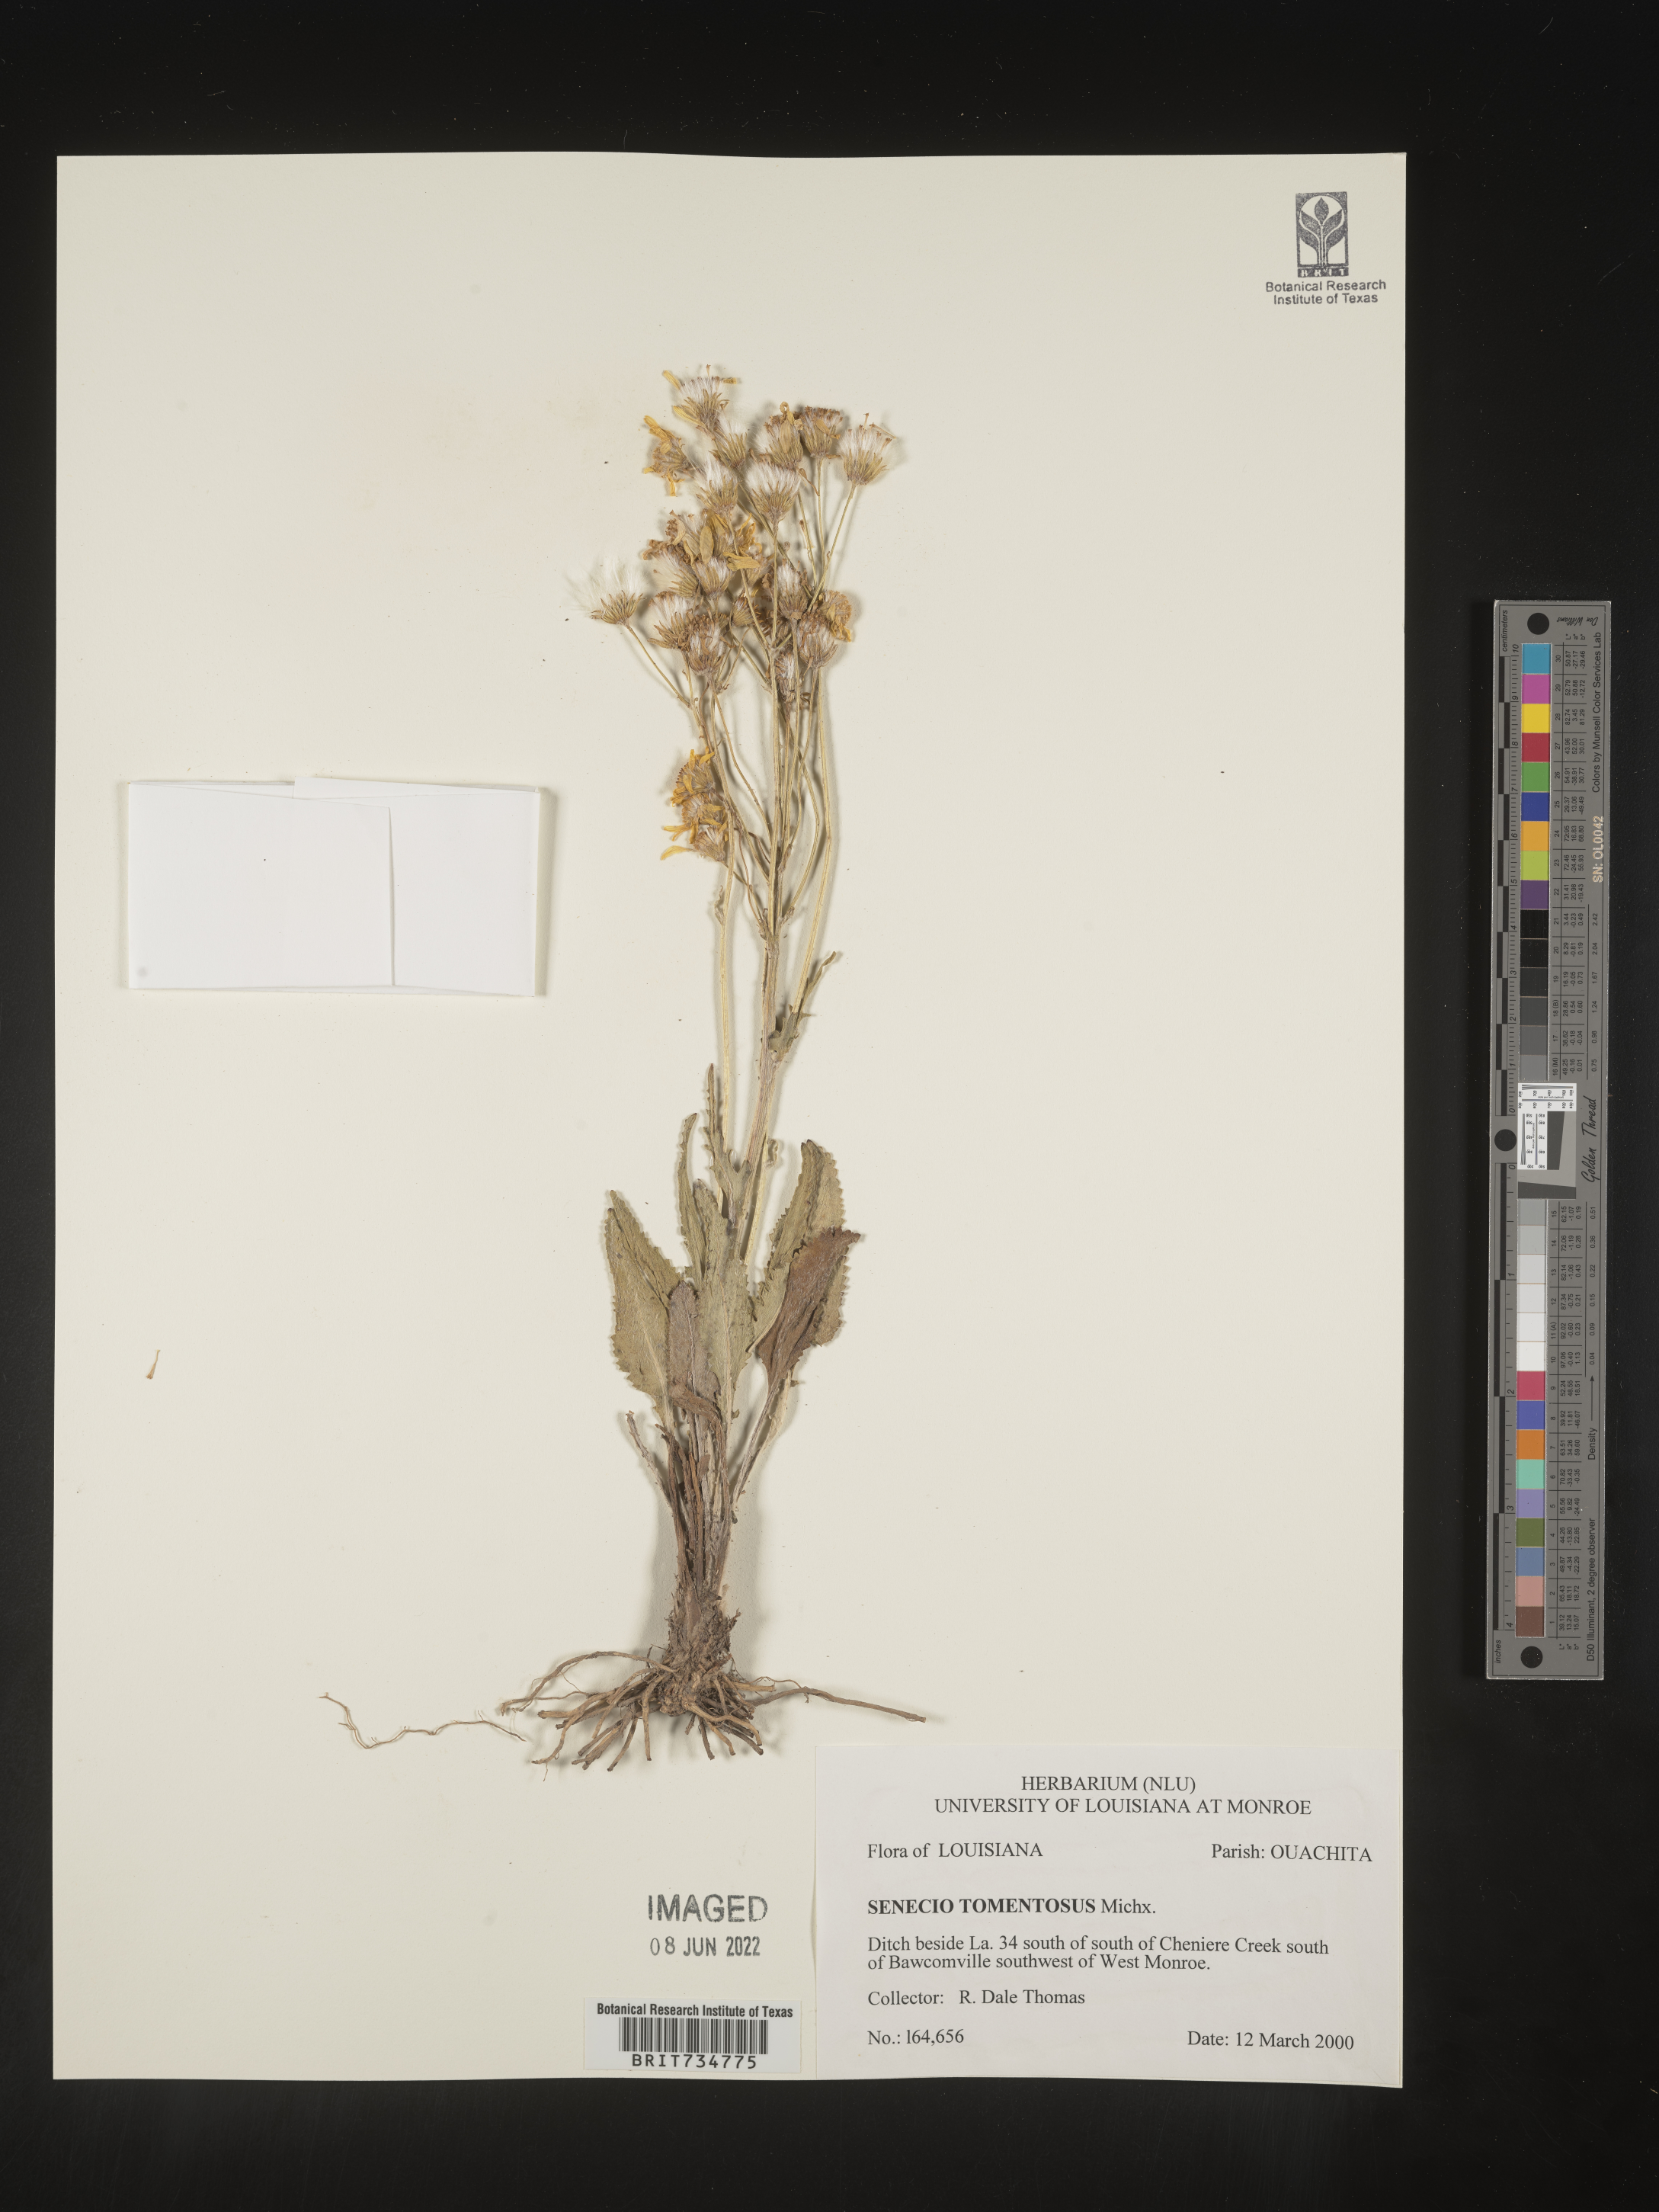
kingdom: Plantae
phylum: Tracheophyta
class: Magnoliopsida
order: Asterales
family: Asteraceae
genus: Packera
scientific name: Packera dubia
